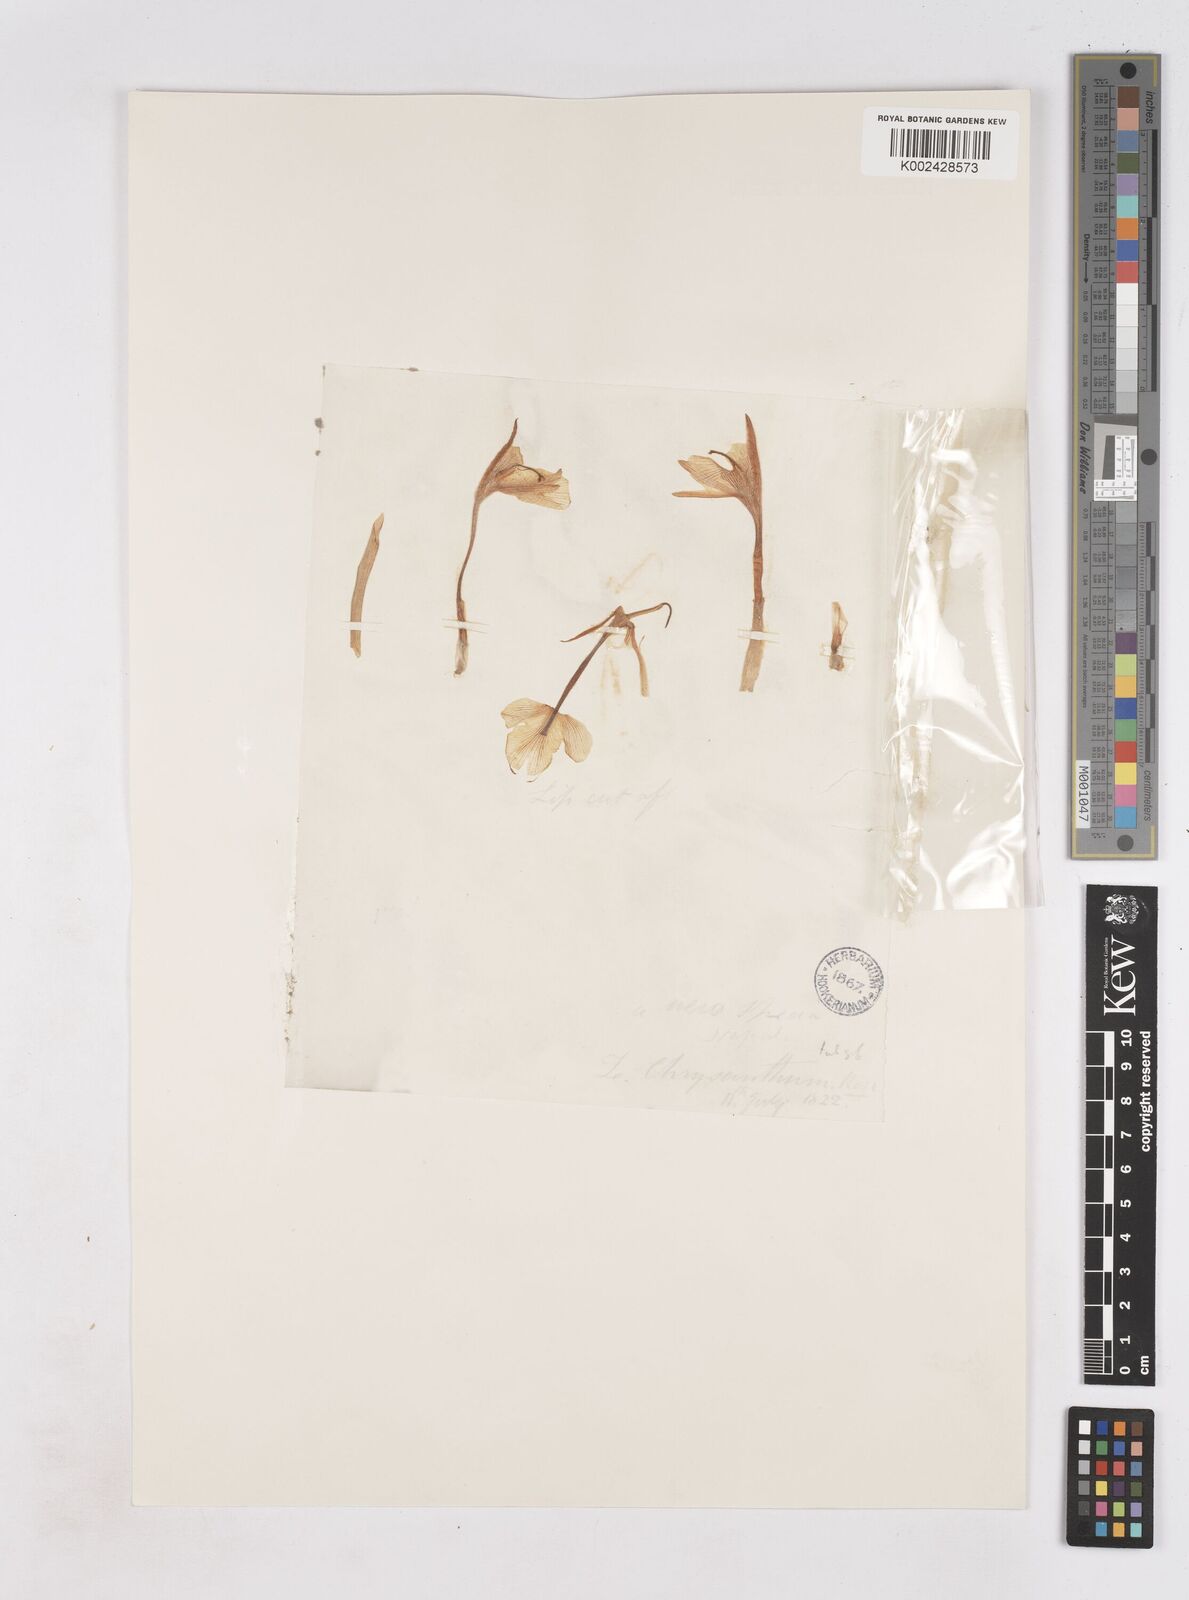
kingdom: Plantae
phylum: Tracheophyta
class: Liliopsida
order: Zingiberales
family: Zingiberaceae
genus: Zingiber
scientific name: Zingiber chrysanthum
